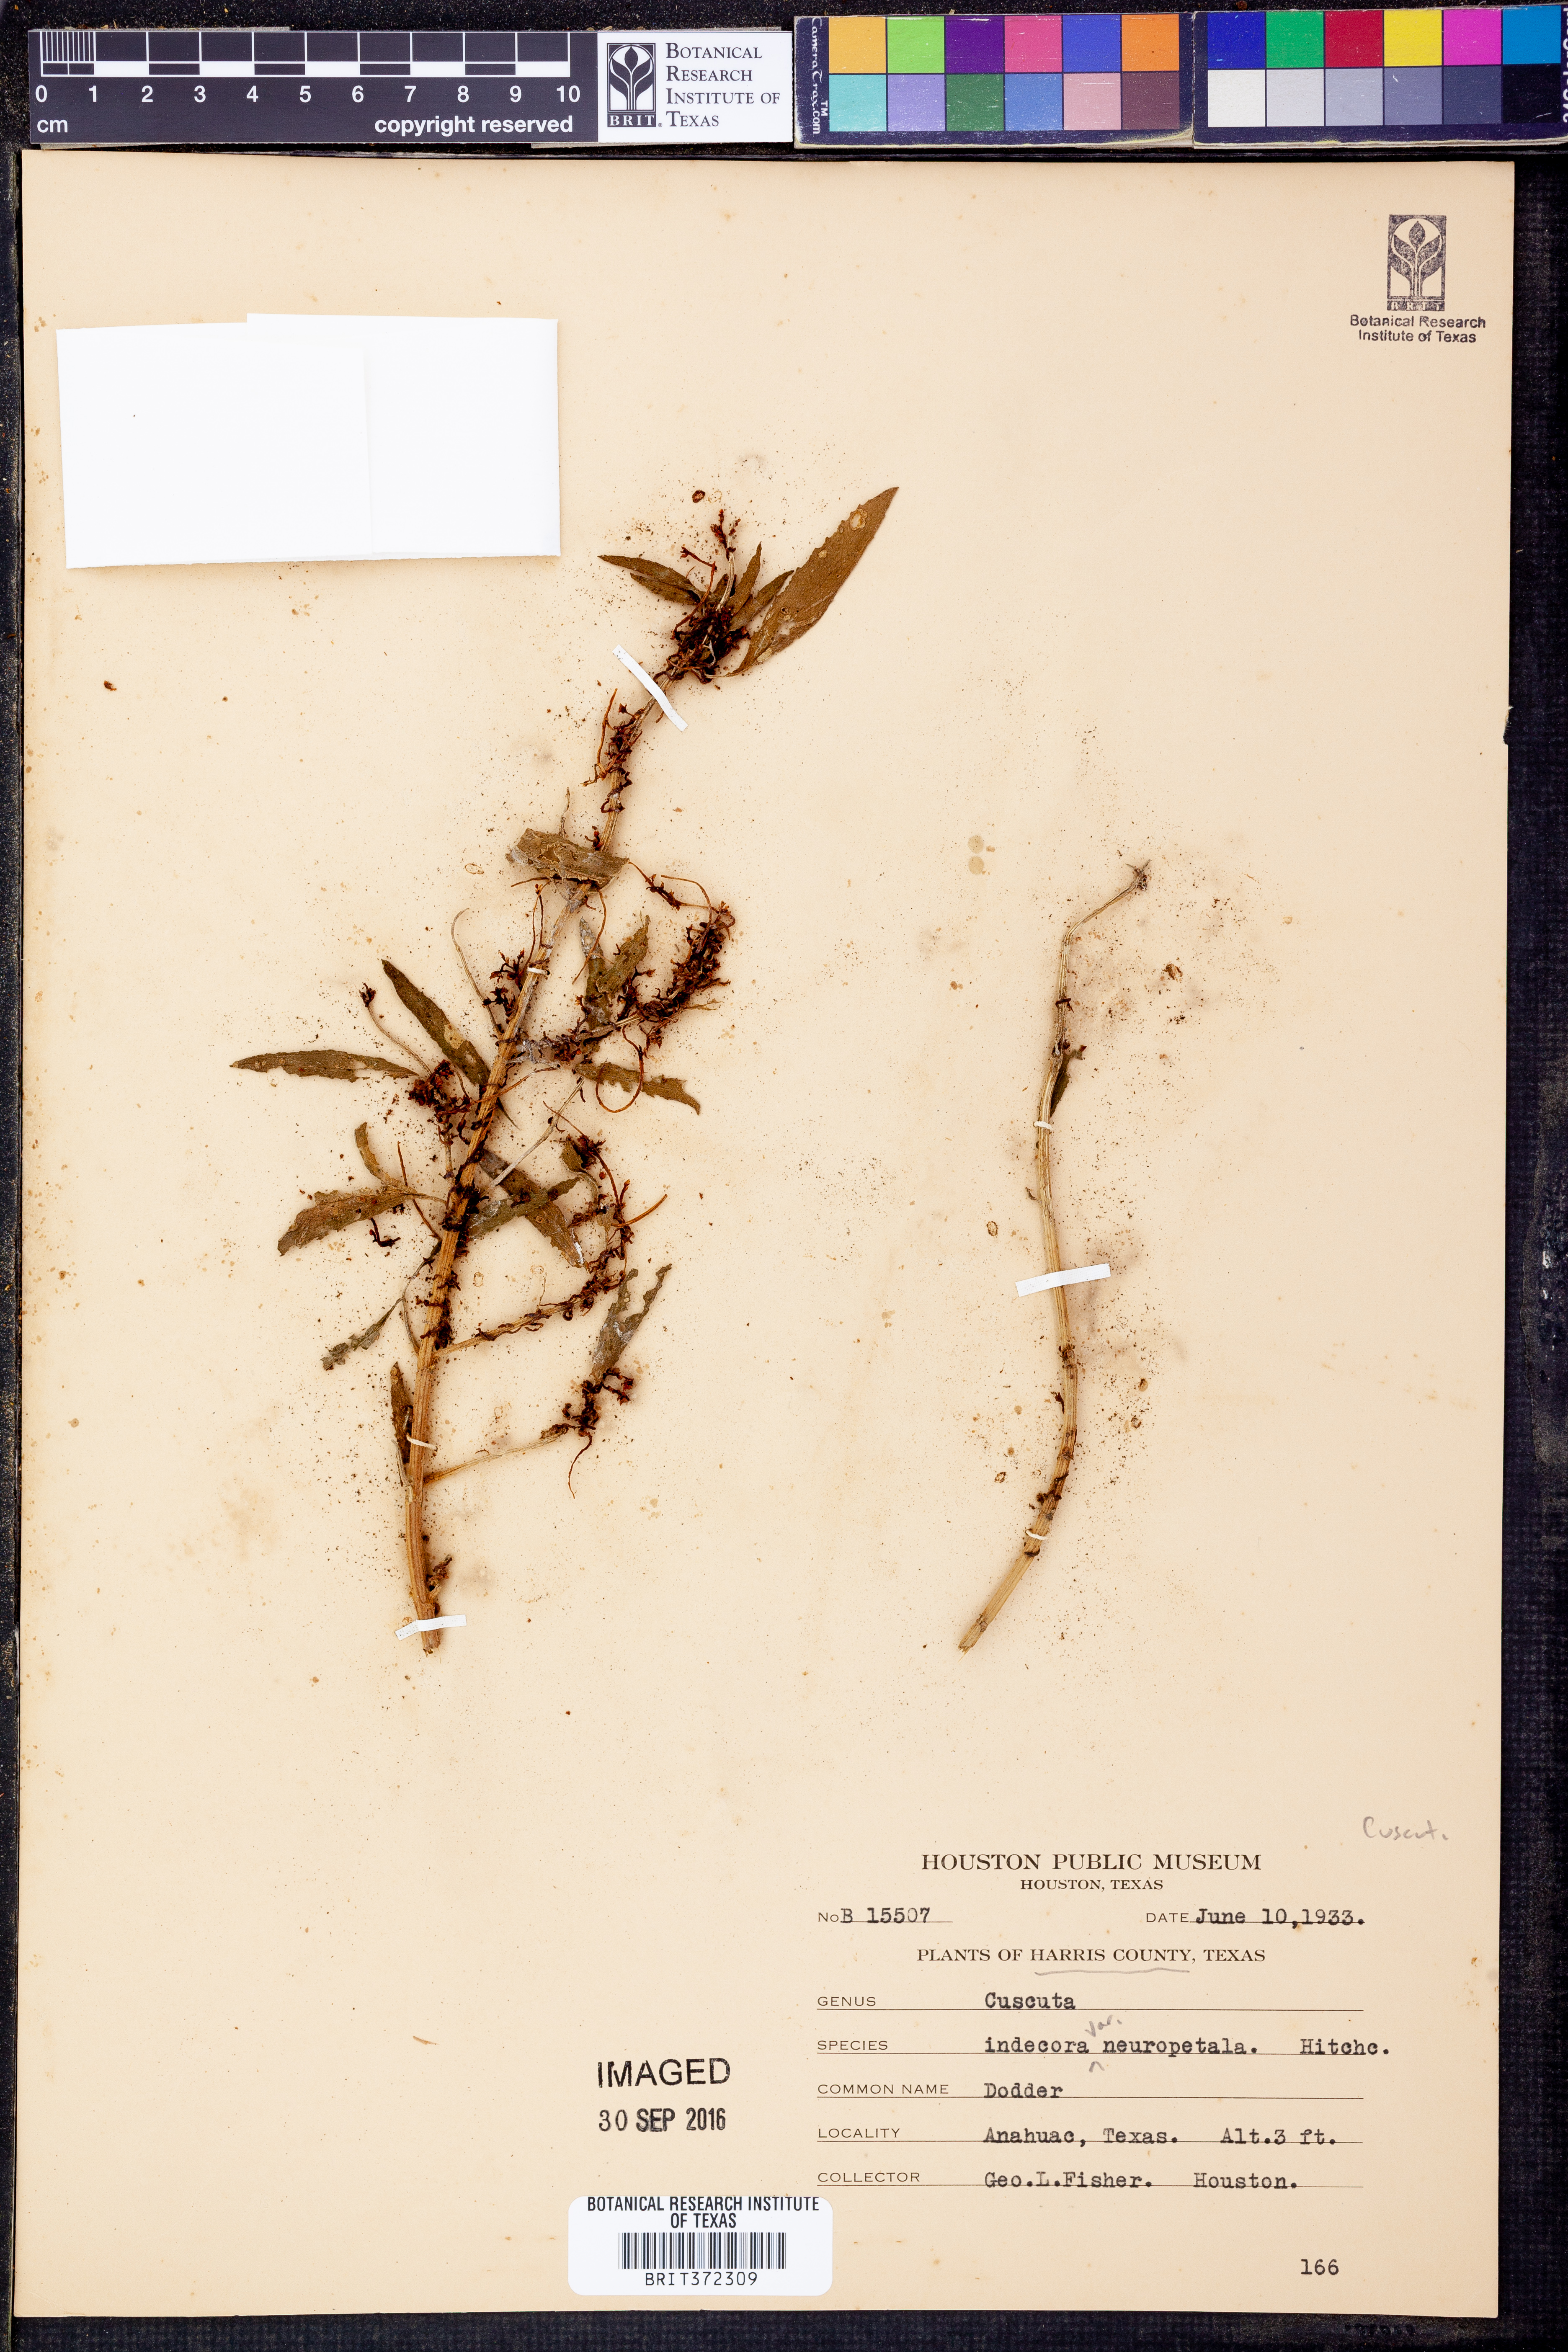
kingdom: Plantae
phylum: Tracheophyta
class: Magnoliopsida
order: Solanales
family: Convolvulaceae
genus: Cuscuta
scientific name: Cuscuta indecora
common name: Large-seed dodder
